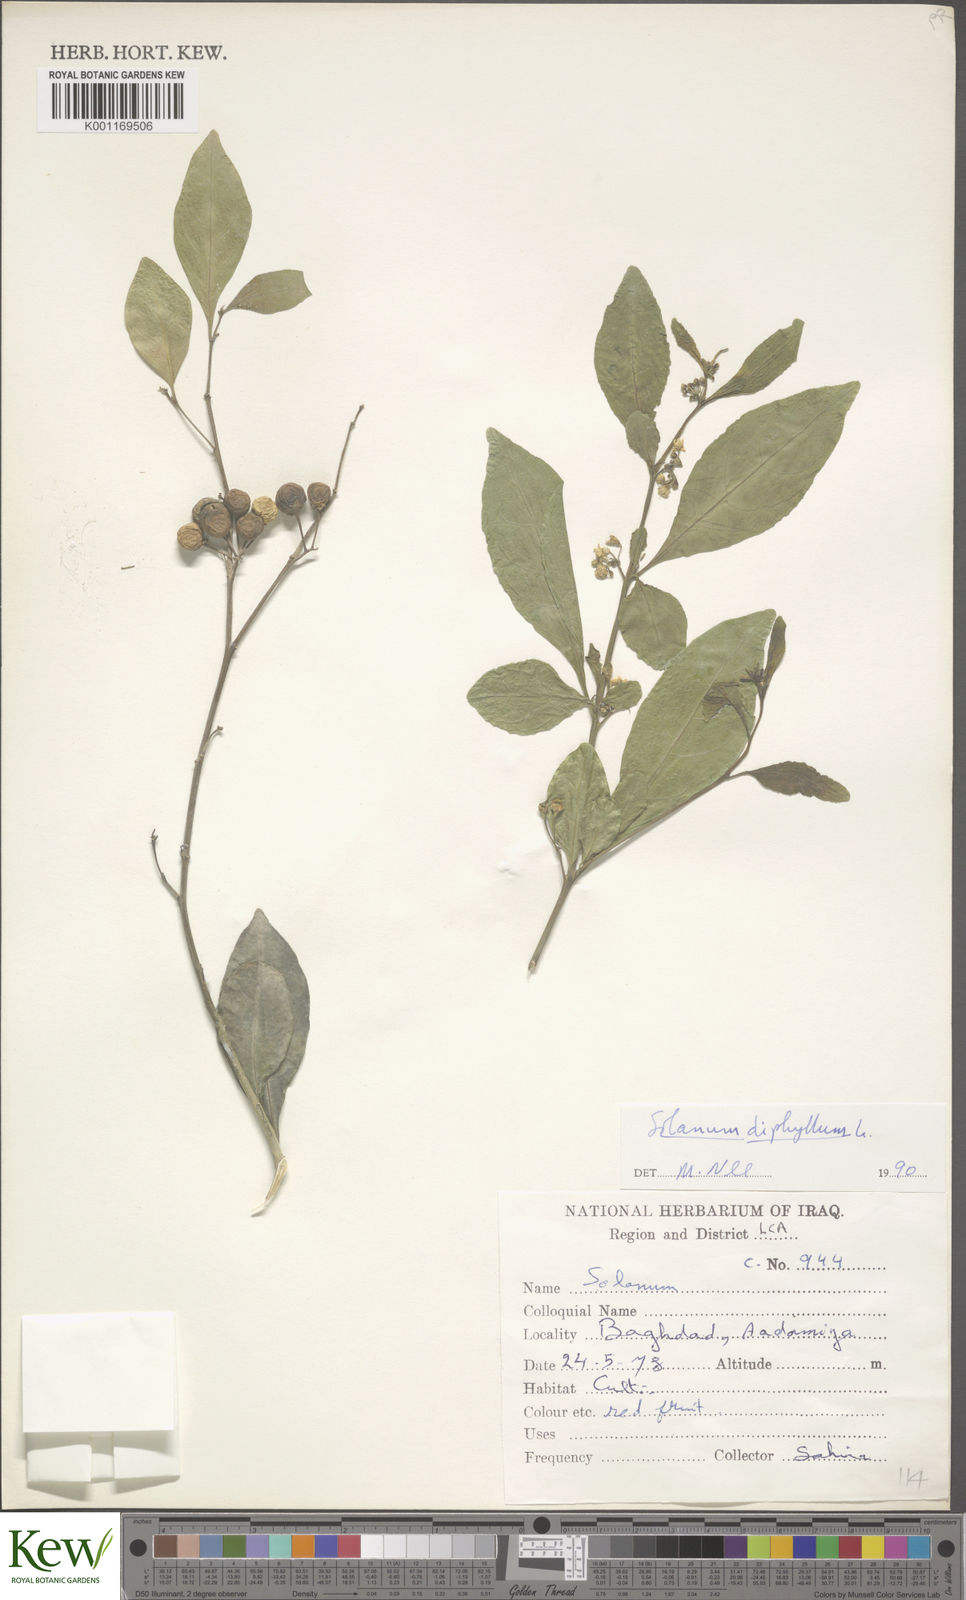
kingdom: Plantae
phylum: Tracheophyta
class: Magnoliopsida
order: Solanales
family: Solanaceae
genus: Solanum
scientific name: Solanum diphyllum
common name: Twoleaf nightshade
